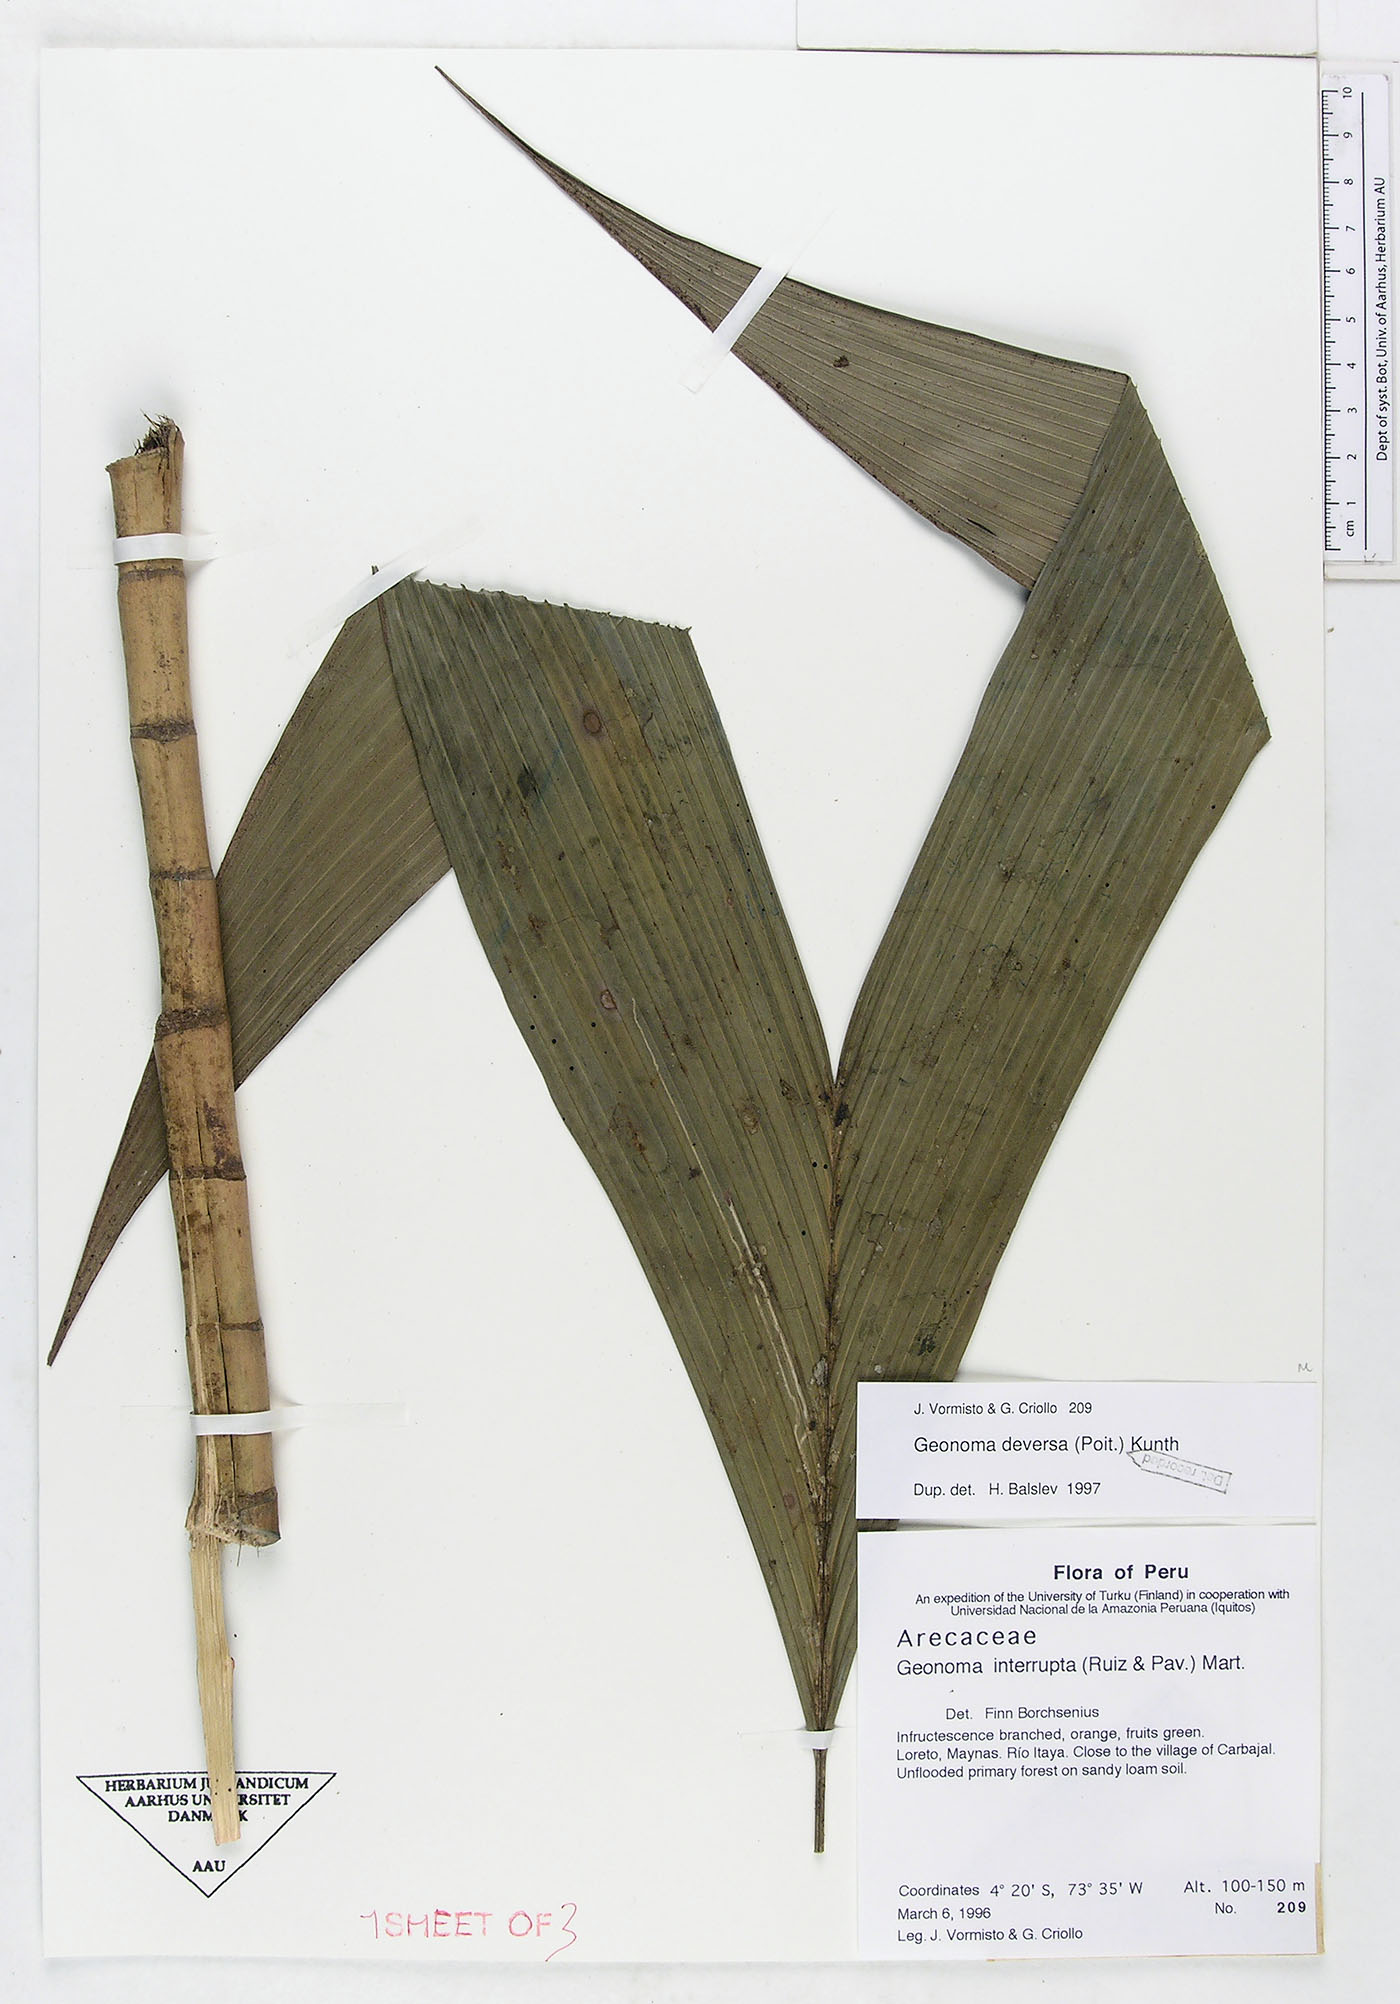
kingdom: Plantae
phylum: Tracheophyta
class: Liliopsida
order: Arecales
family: Arecaceae
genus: Geonoma
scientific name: Geonoma deversa
